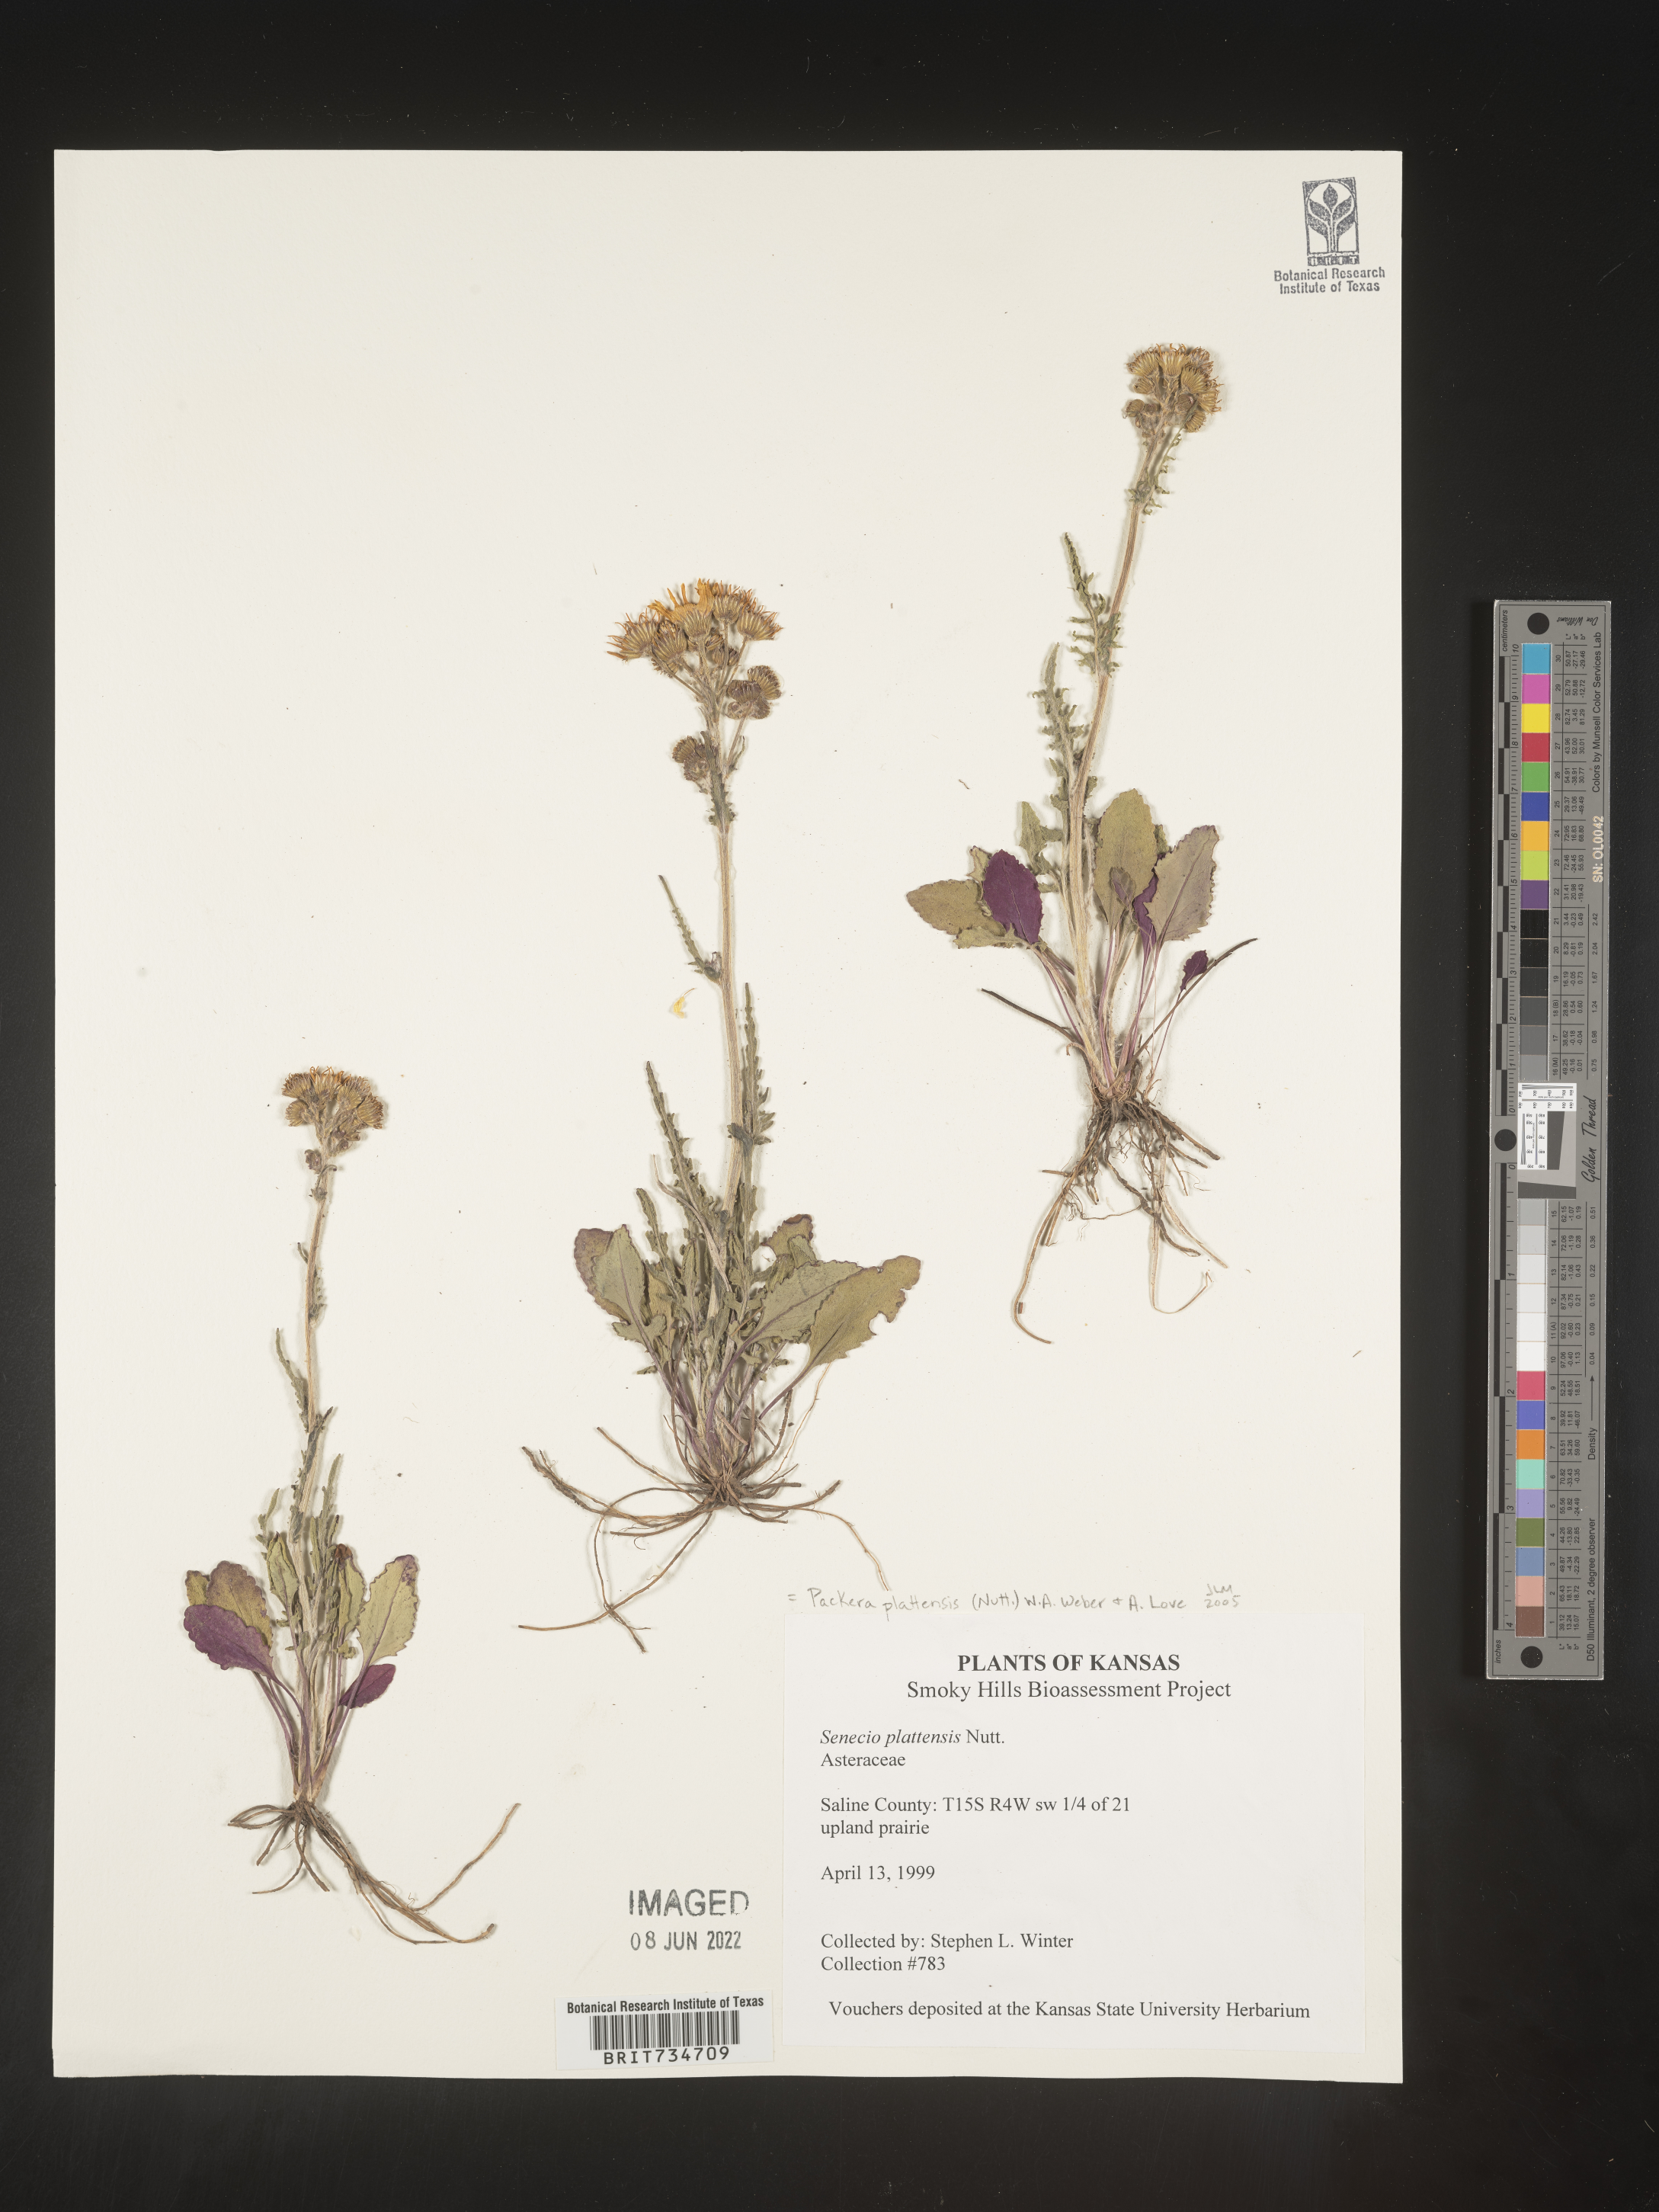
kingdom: Plantae
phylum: Tracheophyta
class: Magnoliopsida
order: Asterales
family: Asteraceae
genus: Packera
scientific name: Packera plattensis
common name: Prairie groundsel
